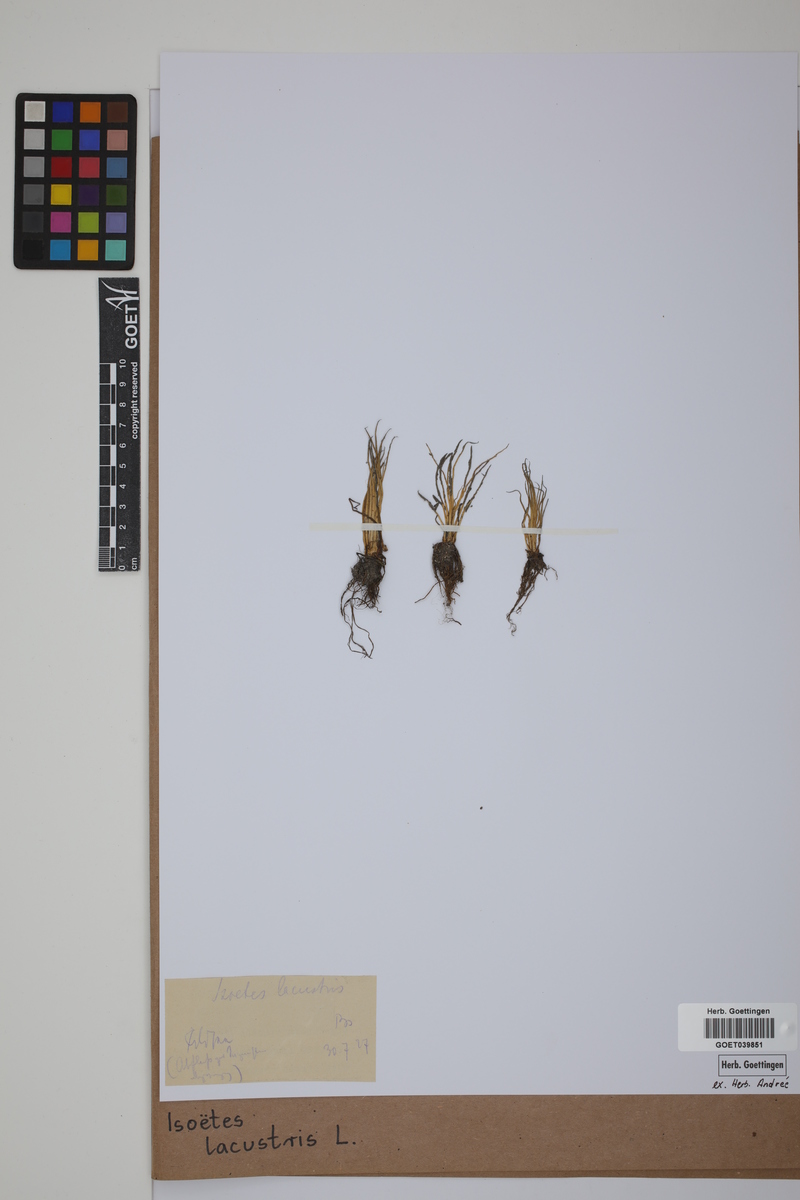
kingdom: Plantae
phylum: Tracheophyta
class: Lycopodiopsida
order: Isoetales
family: Isoetaceae
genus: Isoetes
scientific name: Isoetes lacustris
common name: Common quillwort
